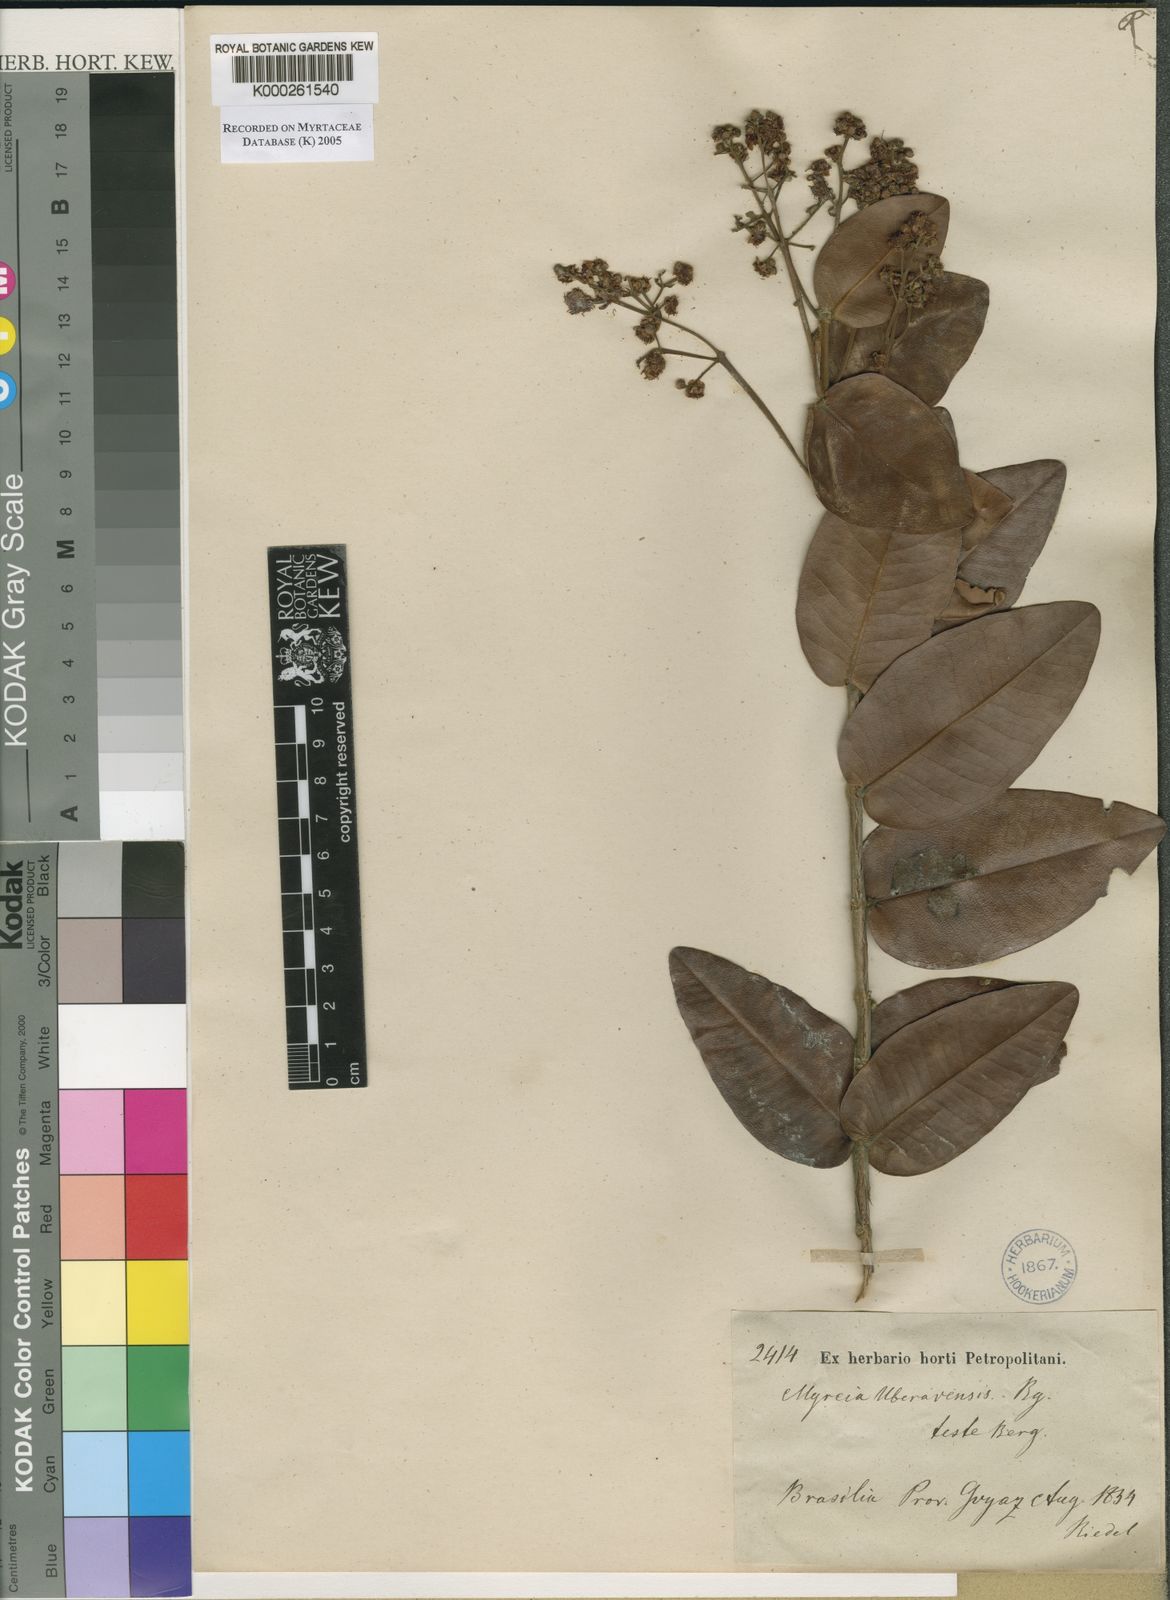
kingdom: Plantae
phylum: Tracheophyta
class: Magnoliopsida
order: Myrtales
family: Myrtaceae
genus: Myrcia
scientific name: Myrcia uberavensis
